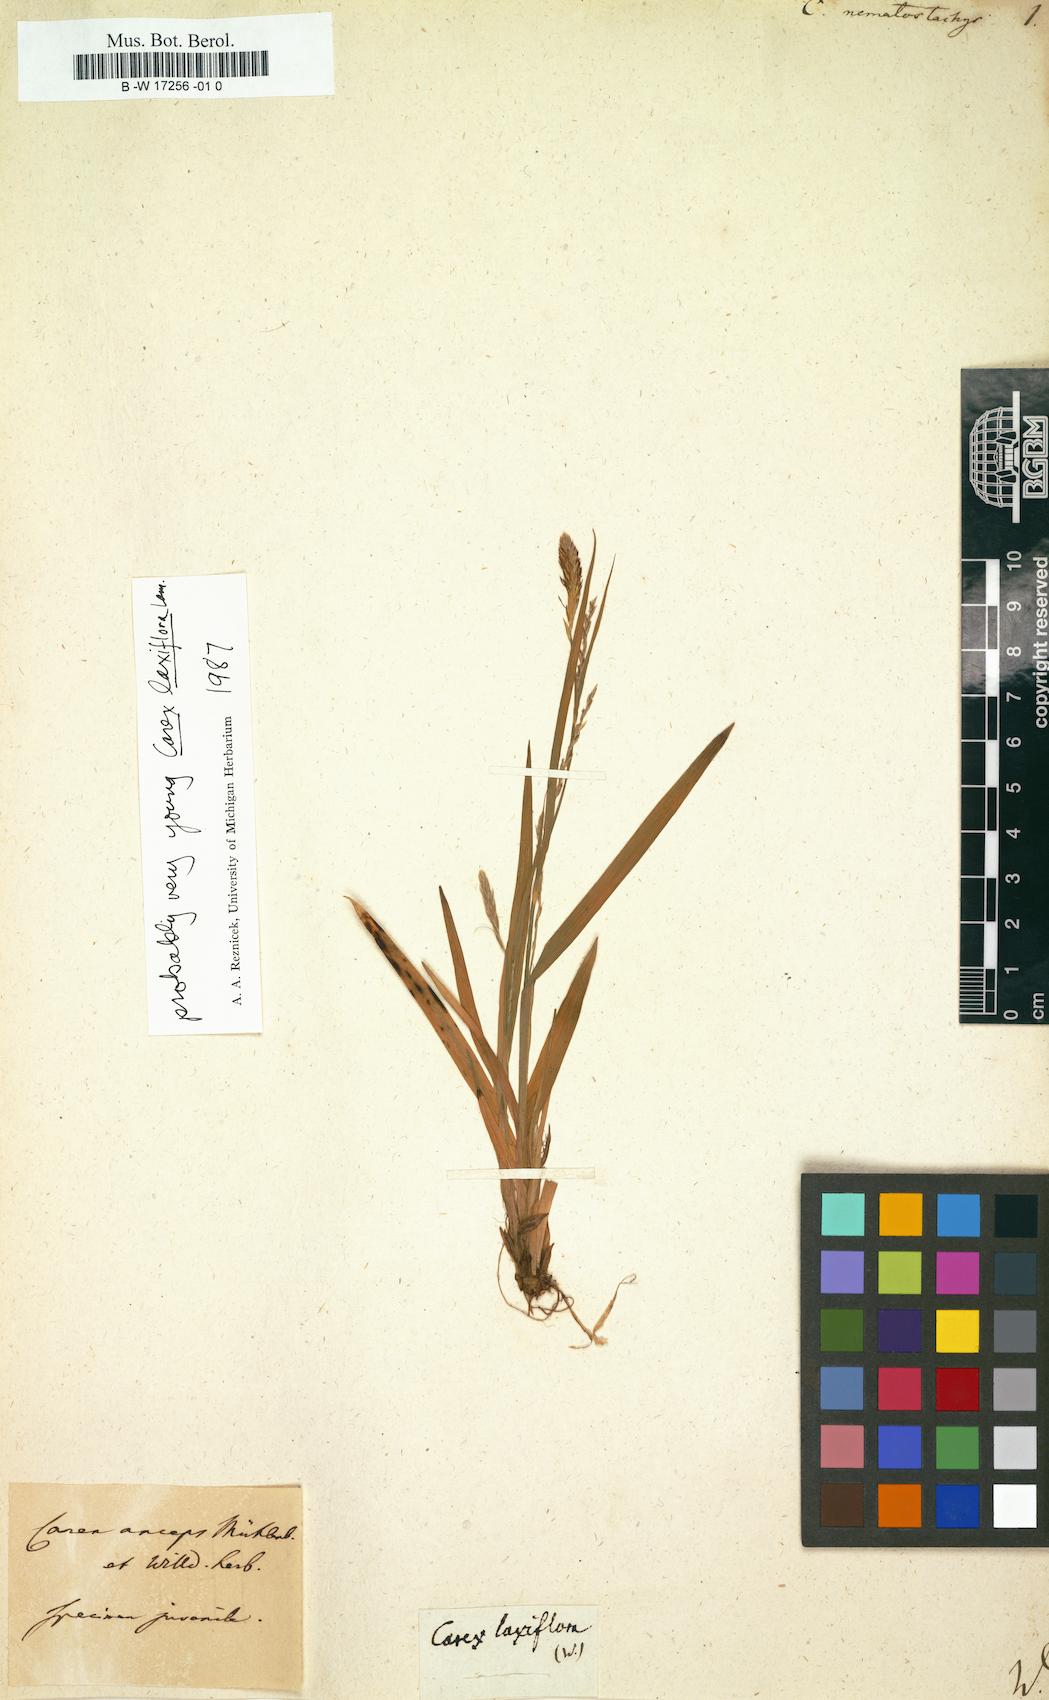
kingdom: Plantae
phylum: Tracheophyta
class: Liliopsida
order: Poales
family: Cyperaceae
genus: Carex
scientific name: Carex nematostachya
